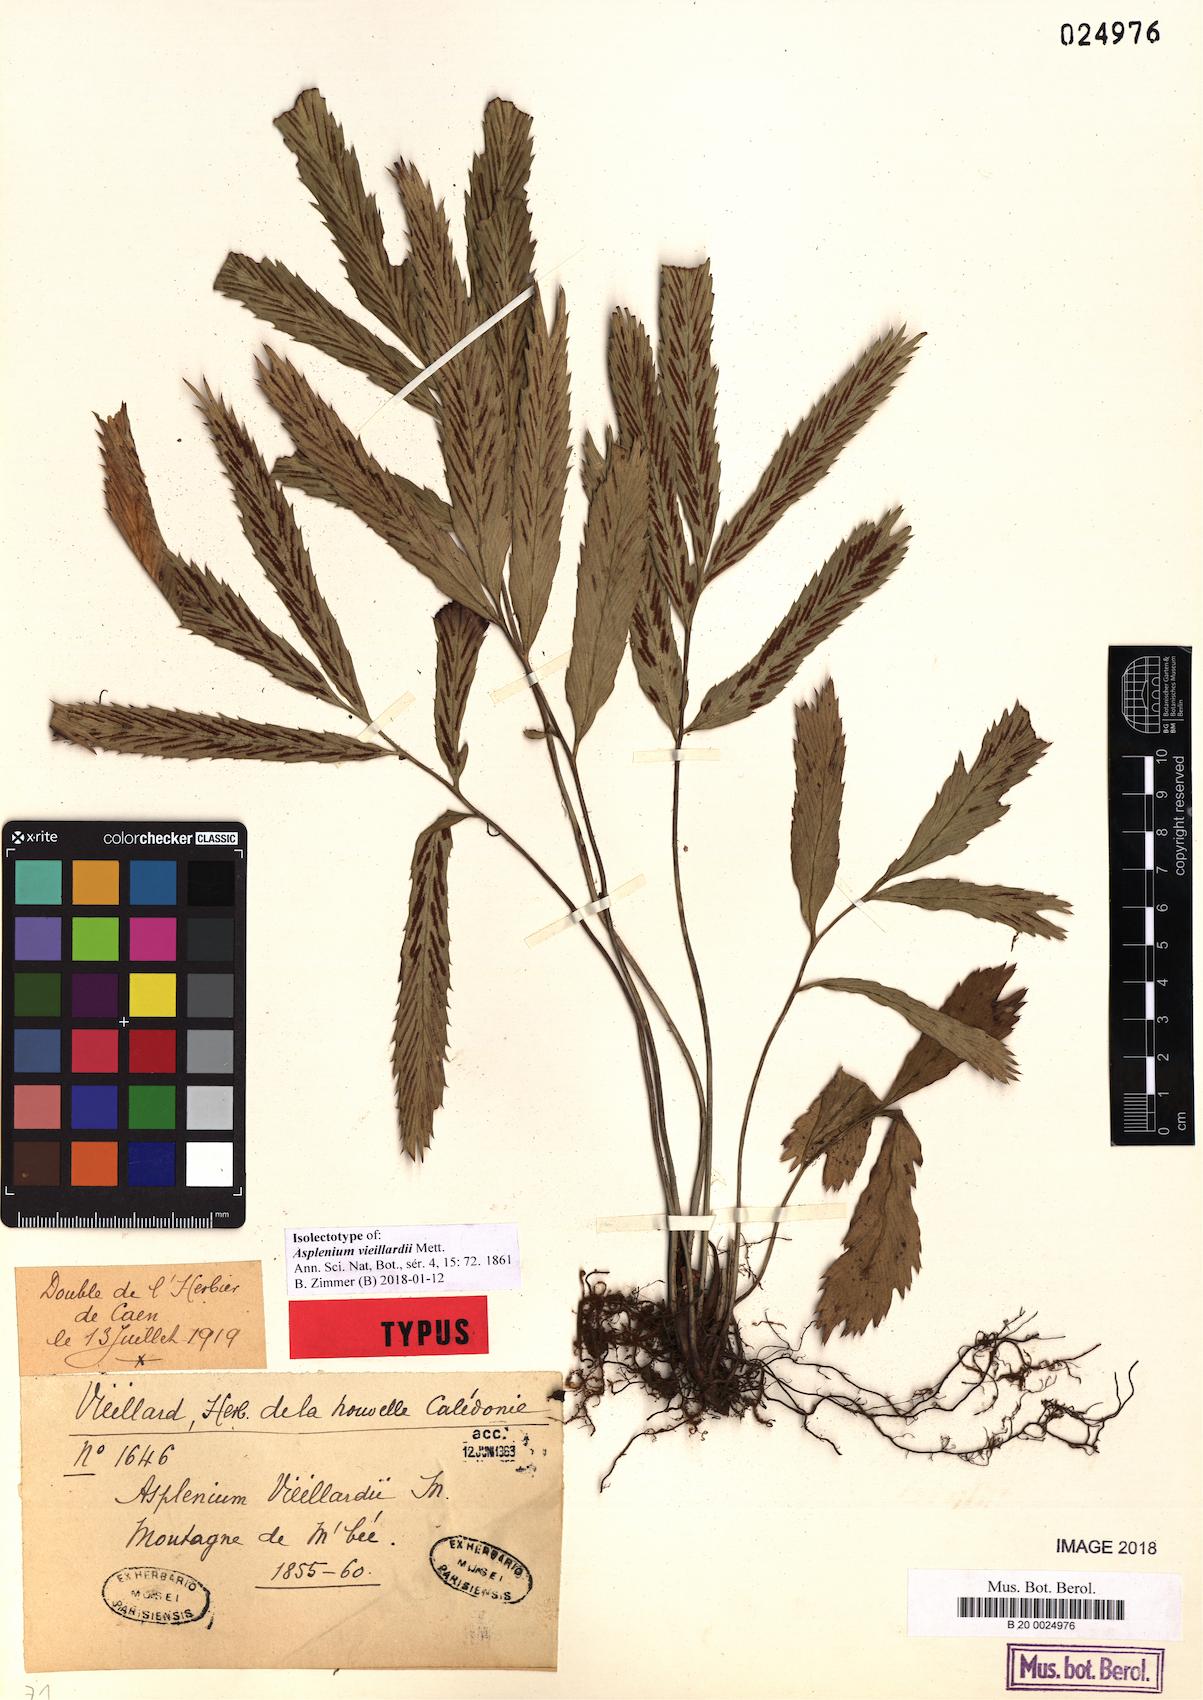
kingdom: Plantae
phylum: Tracheophyta
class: Polypodiopsida
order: Polypodiales
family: Aspleniaceae
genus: Asplenium
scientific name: Asplenium vieillardii
